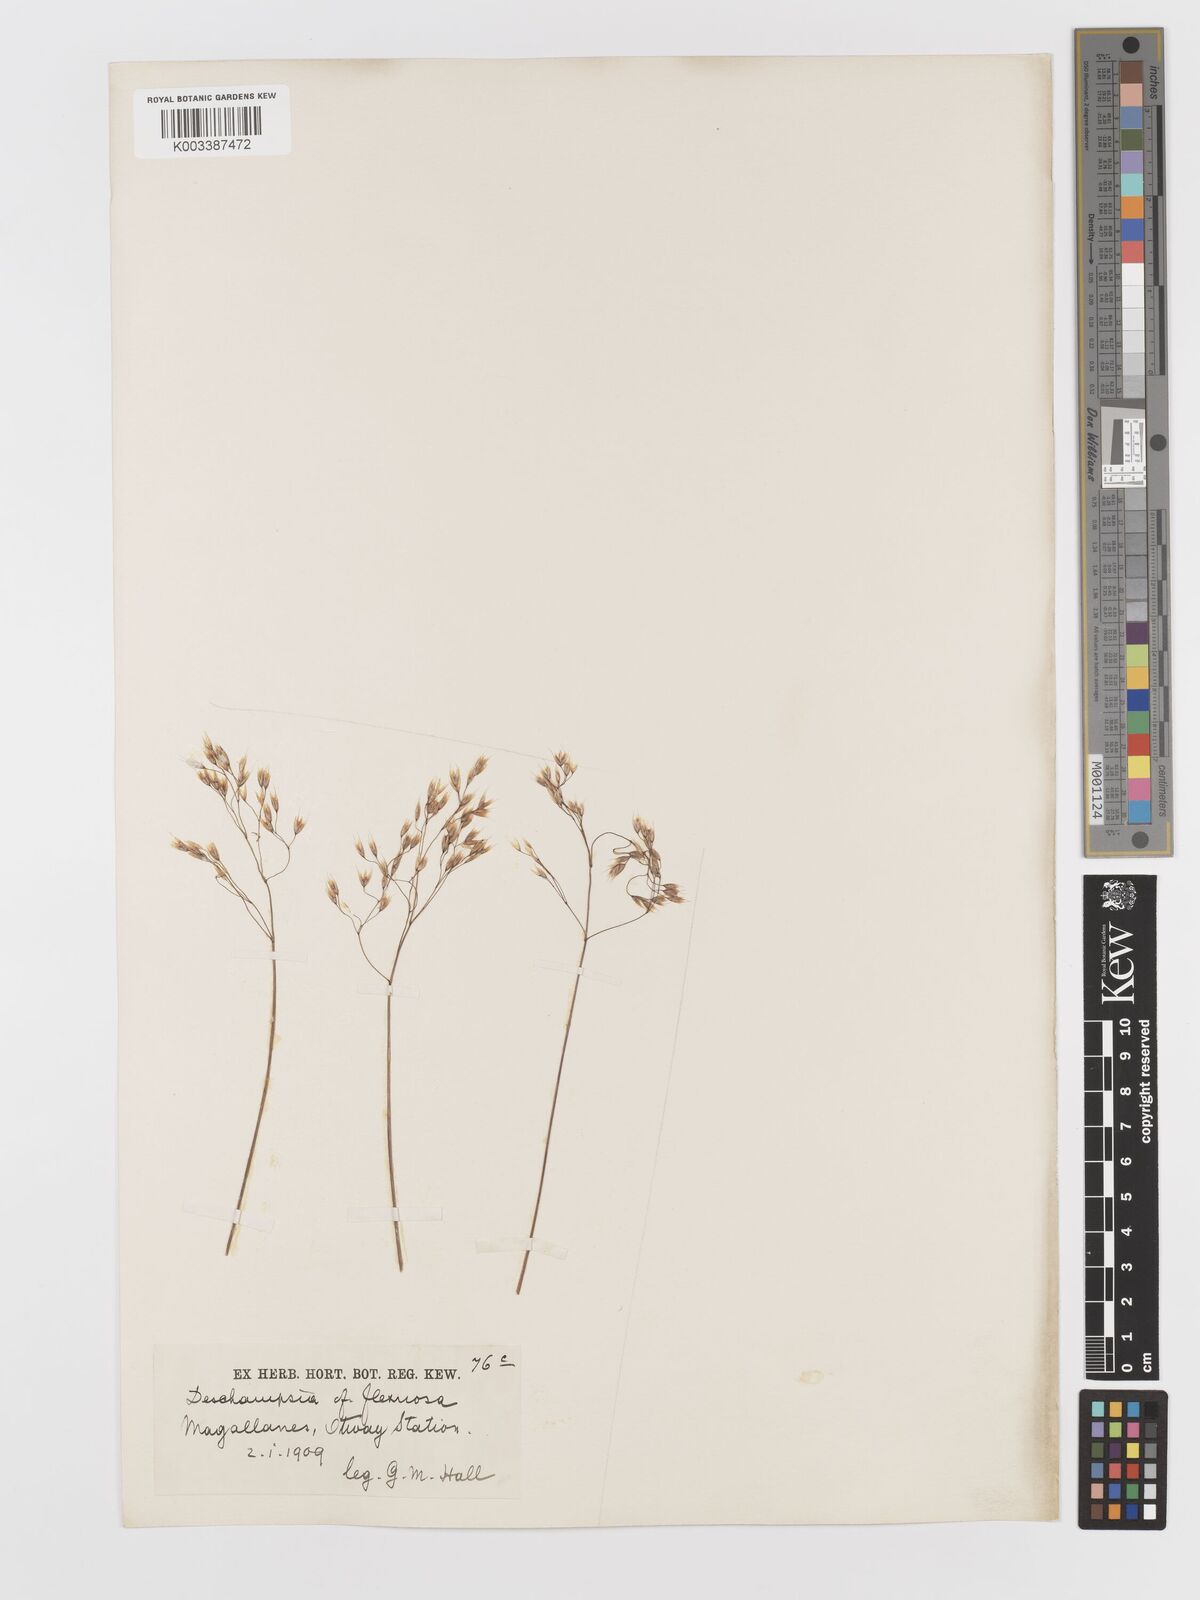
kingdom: Plantae
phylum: Tracheophyta
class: Liliopsida
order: Poales
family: Poaceae
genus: Avenella
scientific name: Avenella flexuosa
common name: Wavy hairgrass
